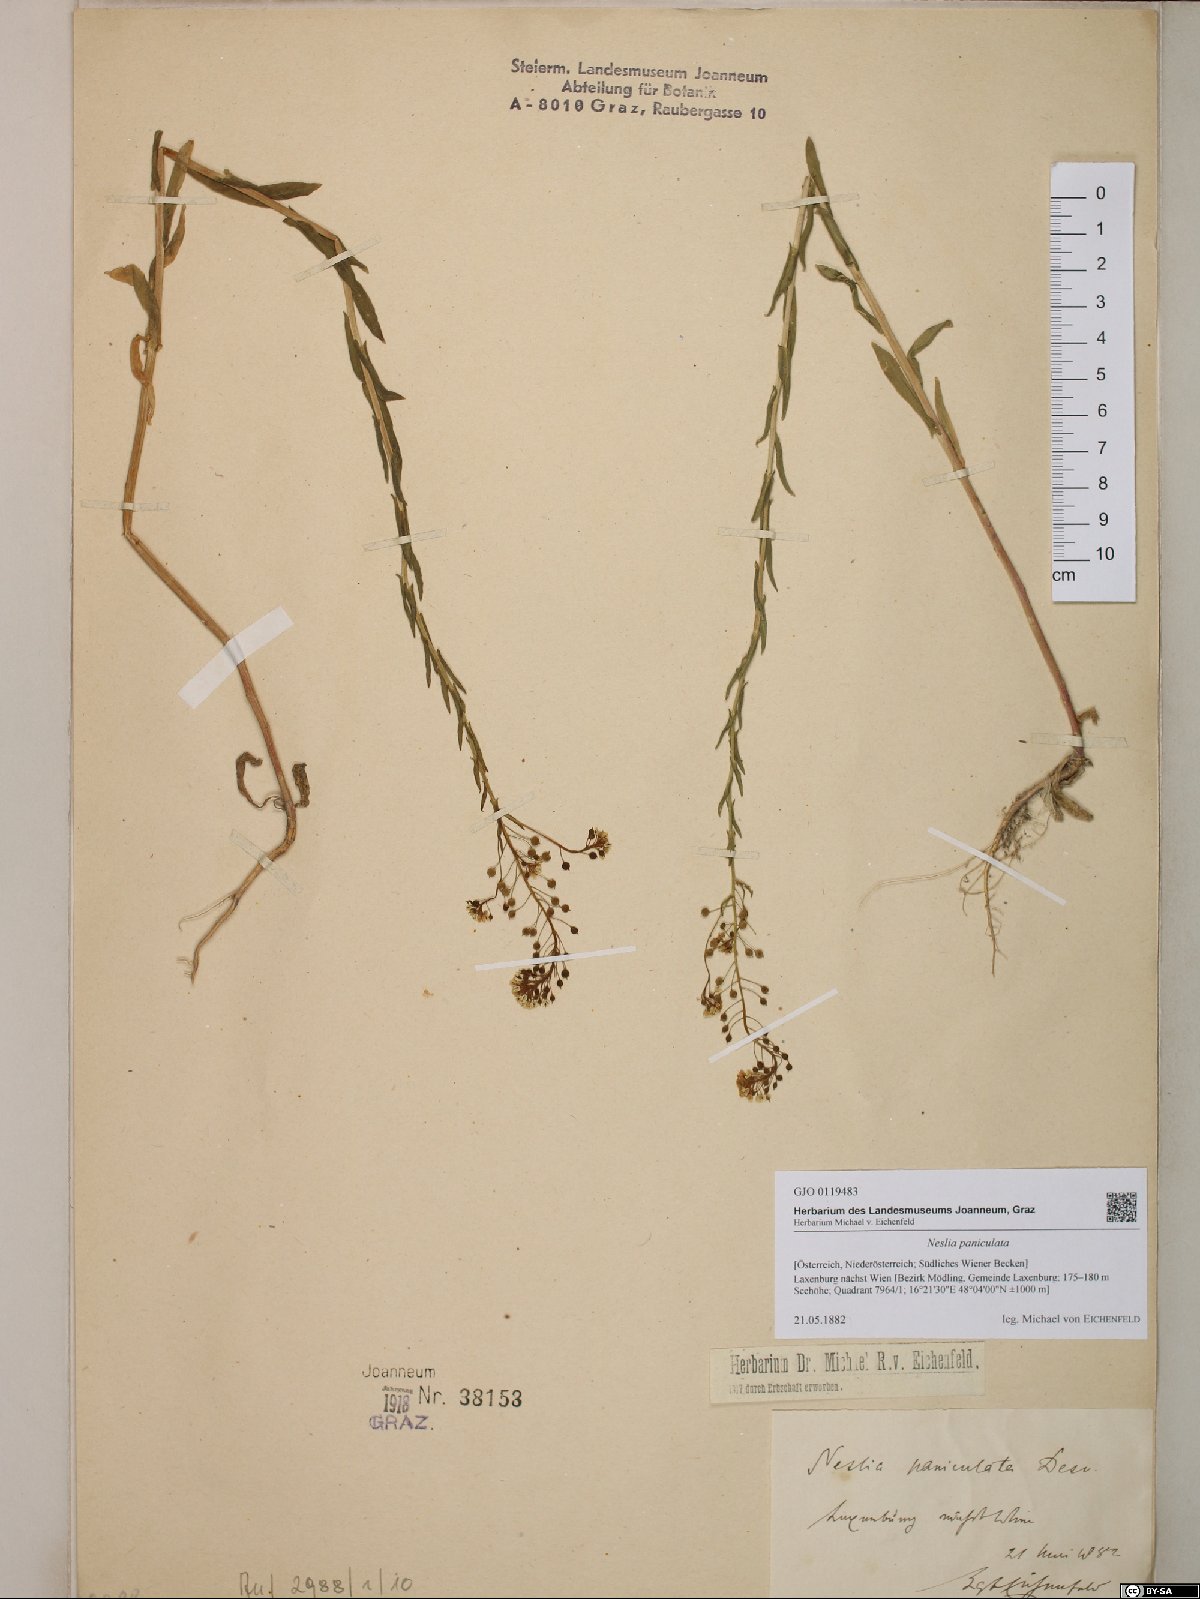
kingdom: Plantae
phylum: Tracheophyta
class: Magnoliopsida
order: Brassicales
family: Brassicaceae
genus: Neslia
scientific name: Neslia paniculata
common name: Ball mustard
